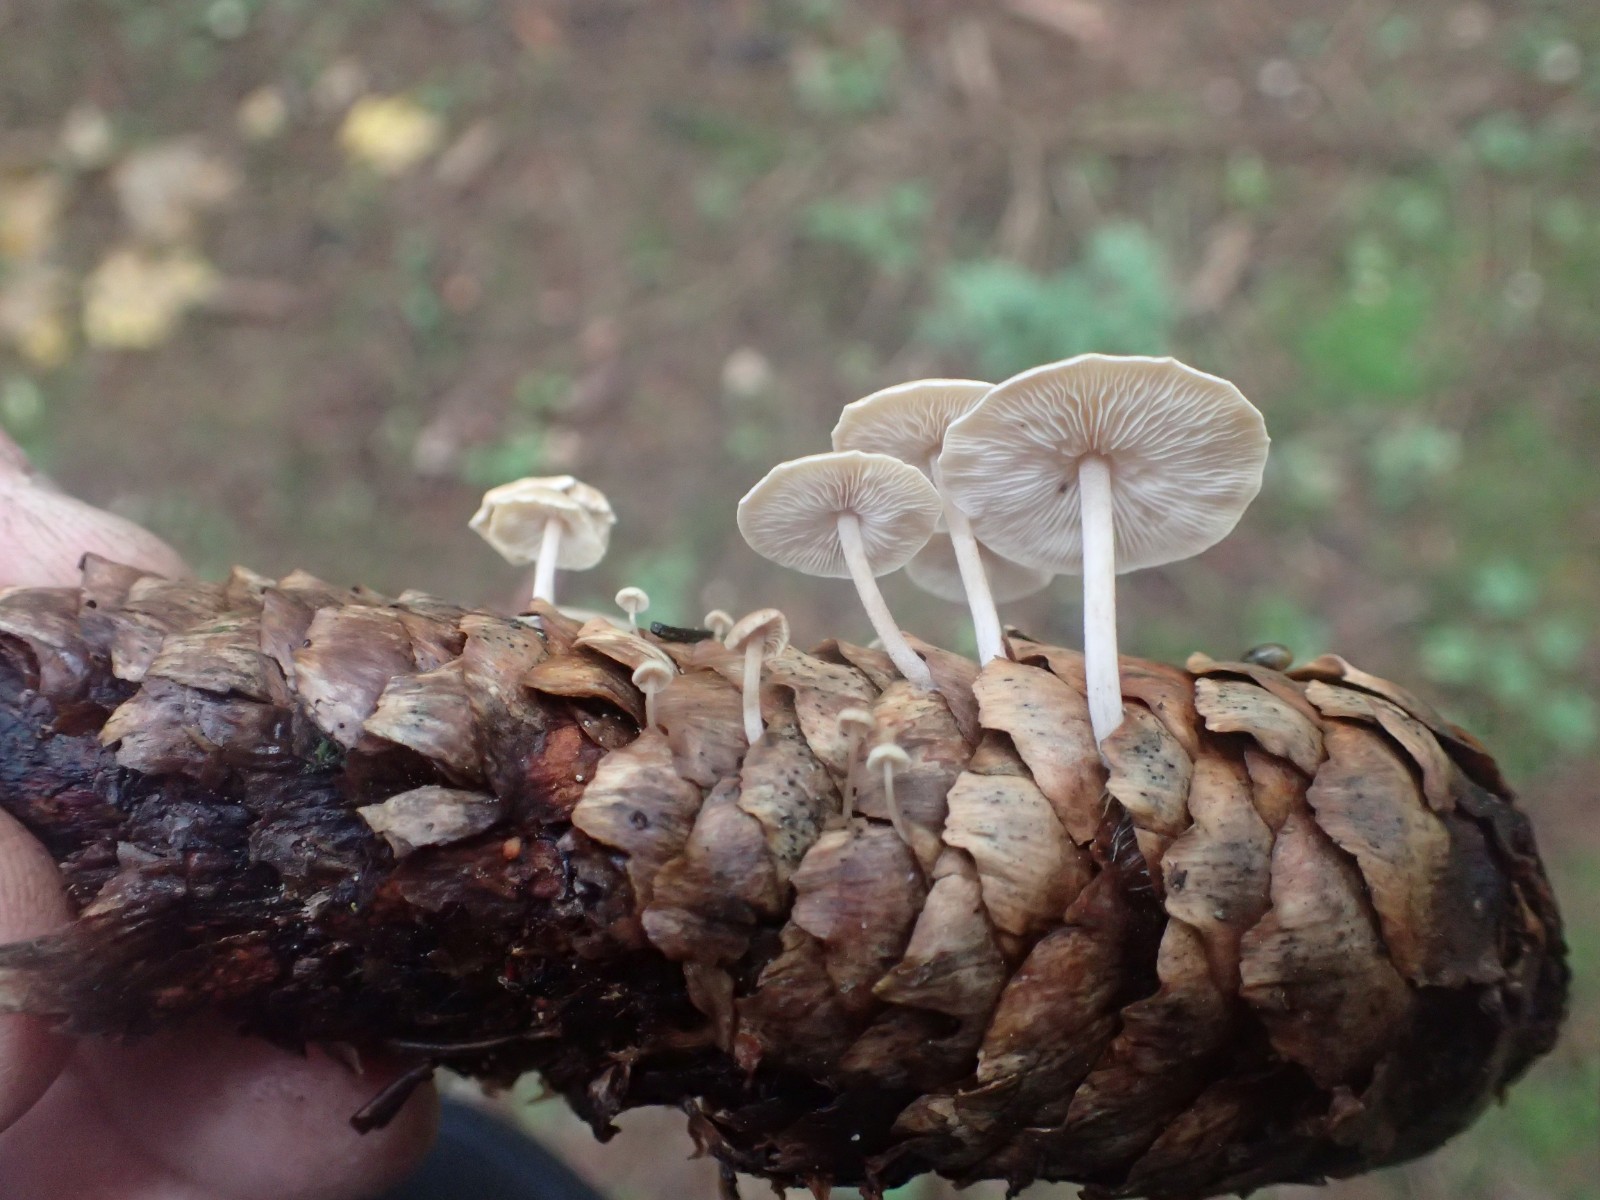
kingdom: Fungi
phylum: Basidiomycota
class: Agaricomycetes
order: Agaricales
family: Marasmiaceae
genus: Baeospora
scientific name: Baeospora myosura
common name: koglebruskhat
